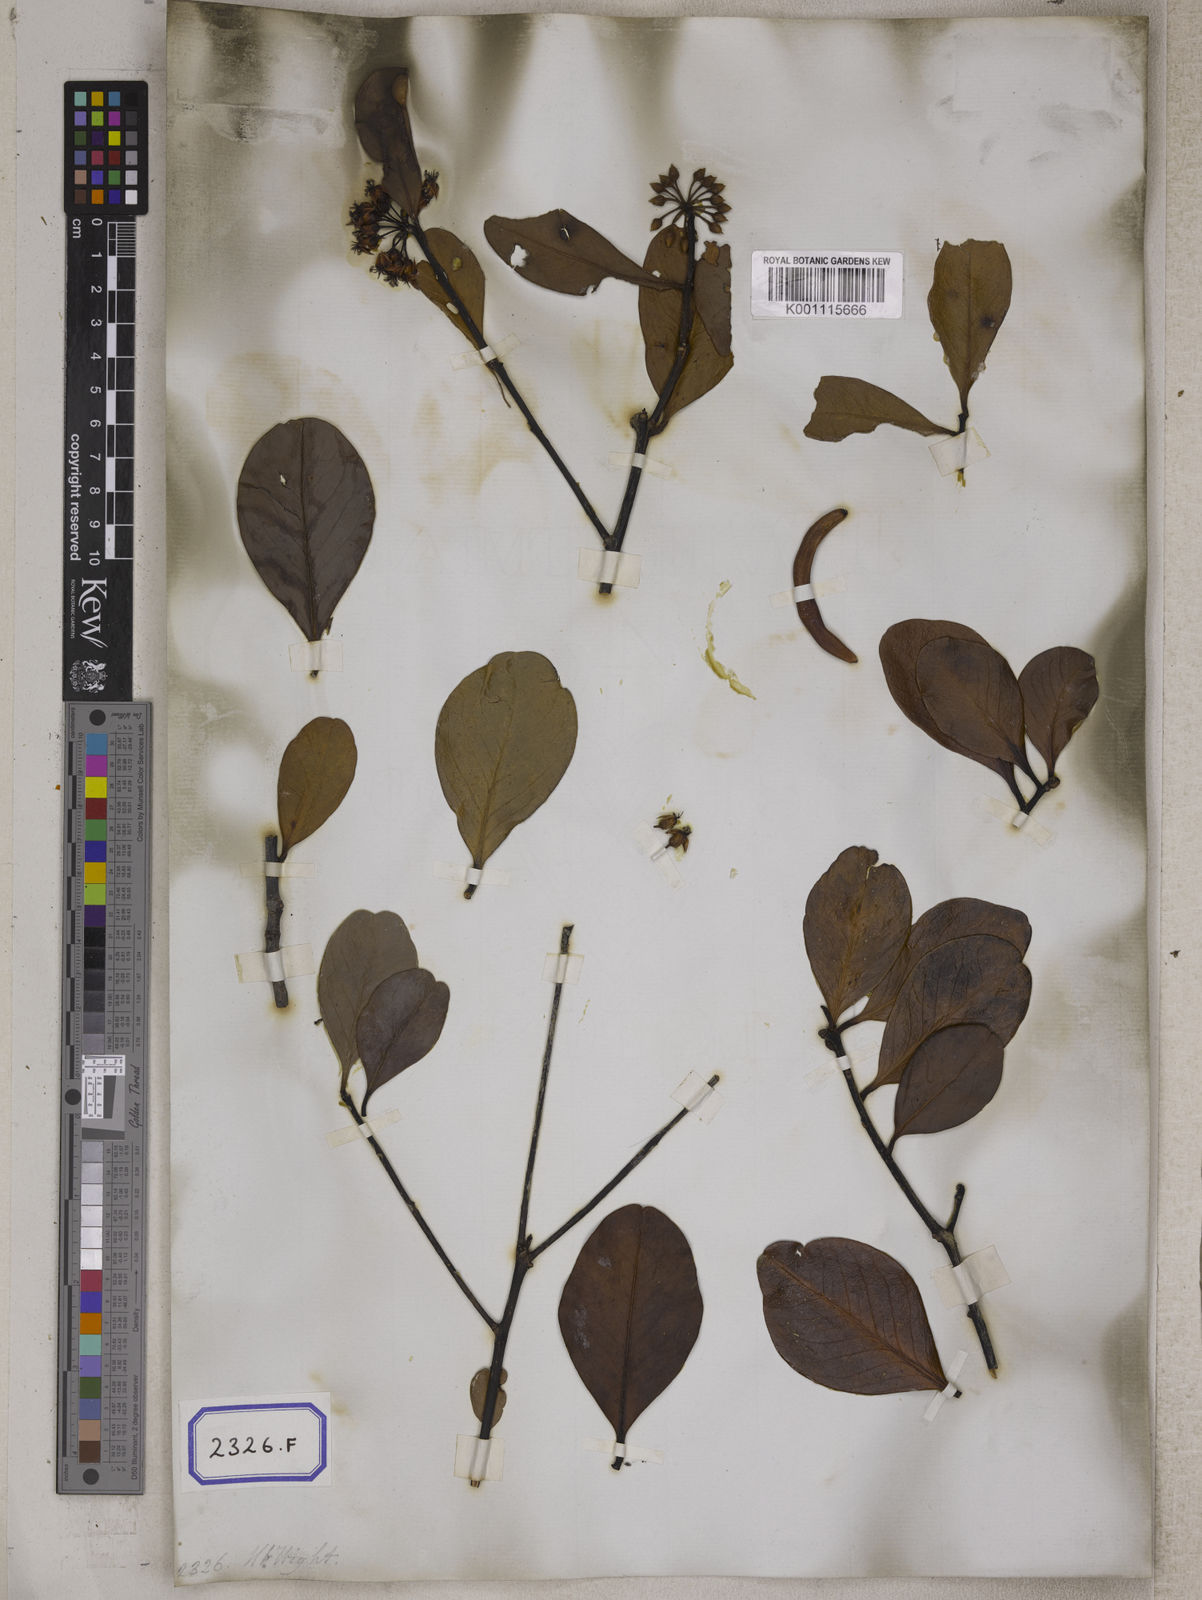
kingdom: Plantae
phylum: Tracheophyta
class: Magnoliopsida
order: Ericales
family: Primulaceae
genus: Aegiceras
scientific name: Aegiceras corniculatum
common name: River mangrove
